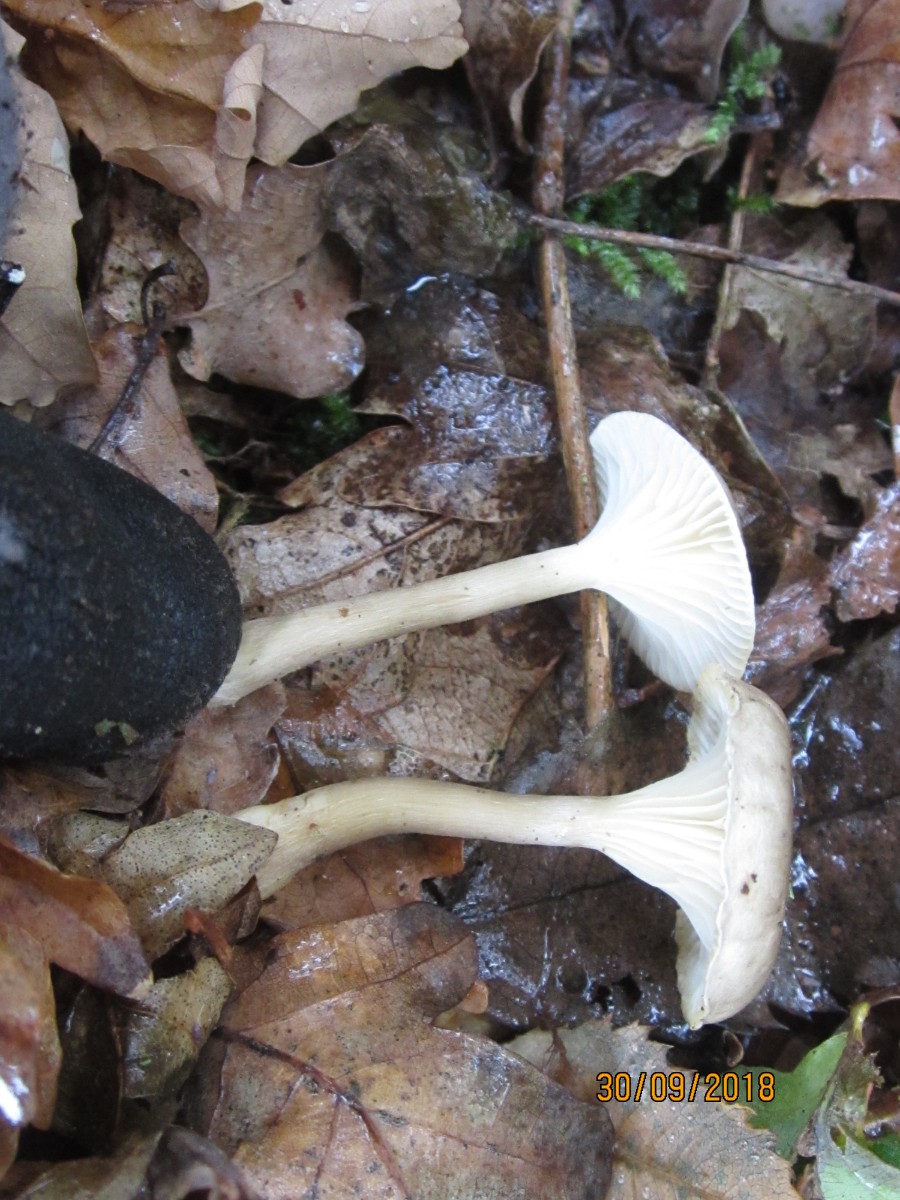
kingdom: Fungi
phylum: Basidiomycota
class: Agaricomycetes
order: Agaricales
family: Hygrophoraceae
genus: Ampulloclitocybe
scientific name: Ampulloclitocybe clavipes
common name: køllefod
